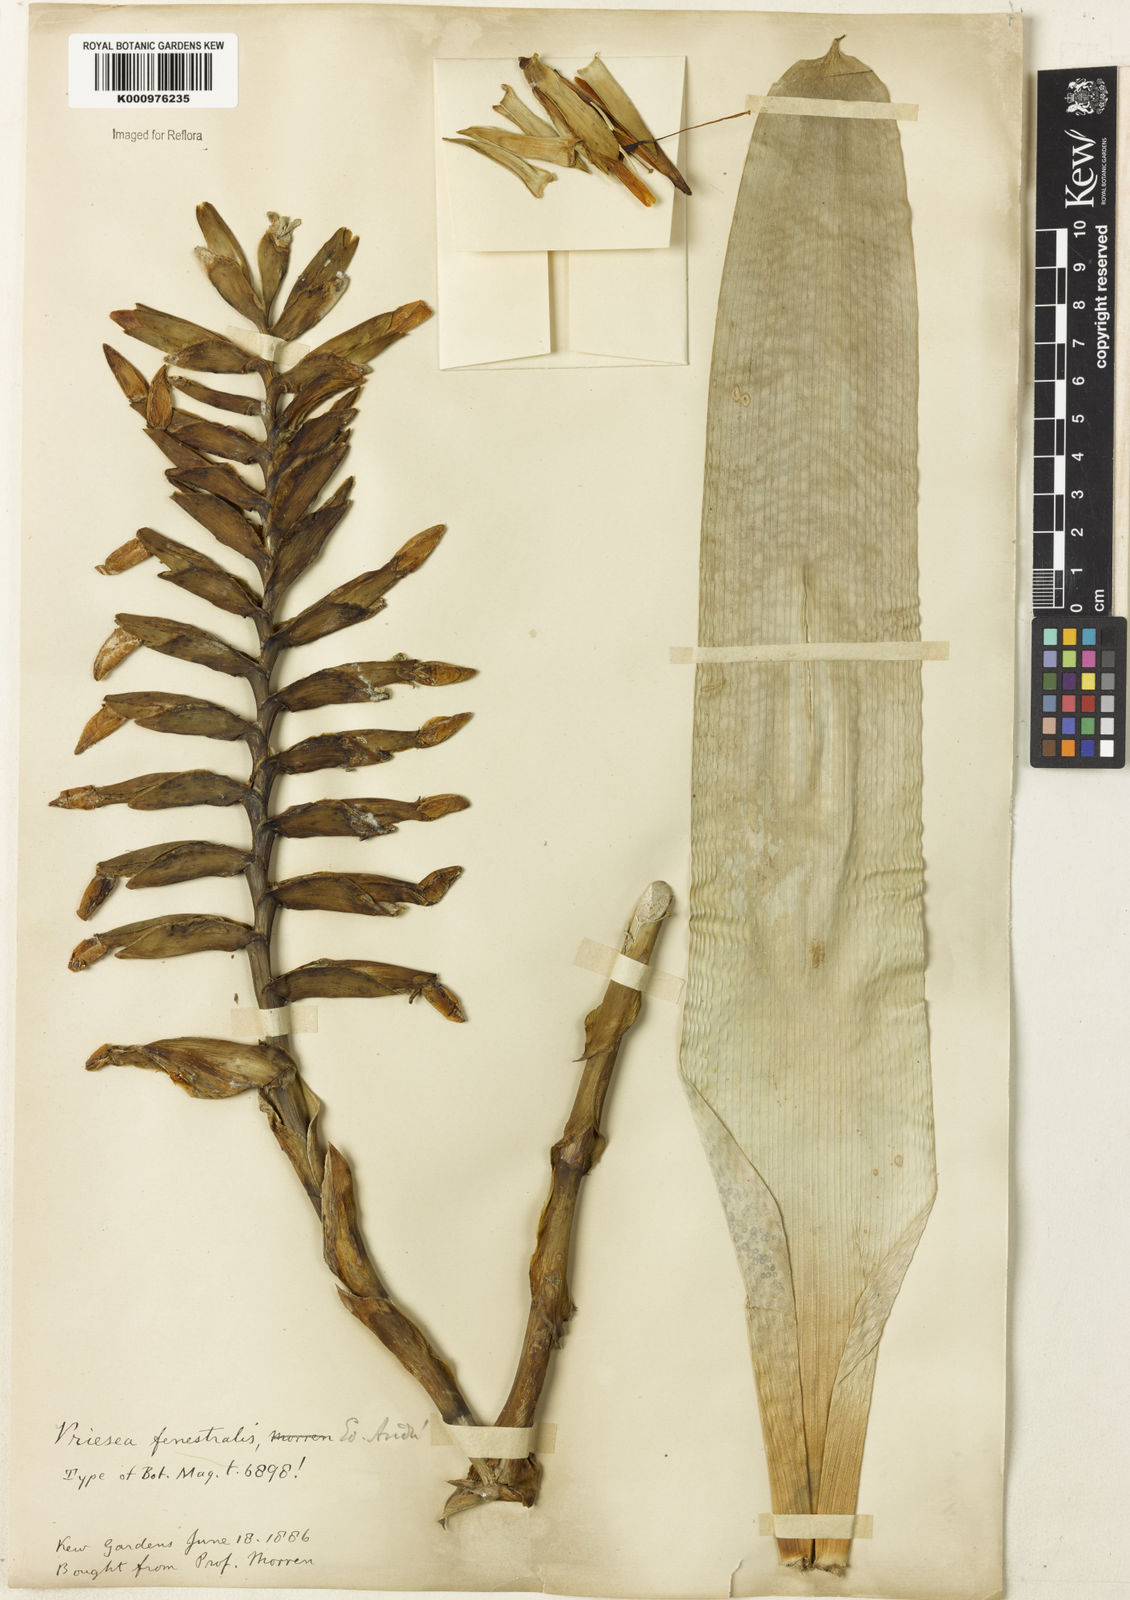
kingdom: Plantae
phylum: Tracheophyta
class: Liliopsida
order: Poales
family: Bromeliaceae
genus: Vriesea
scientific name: Vriesea
